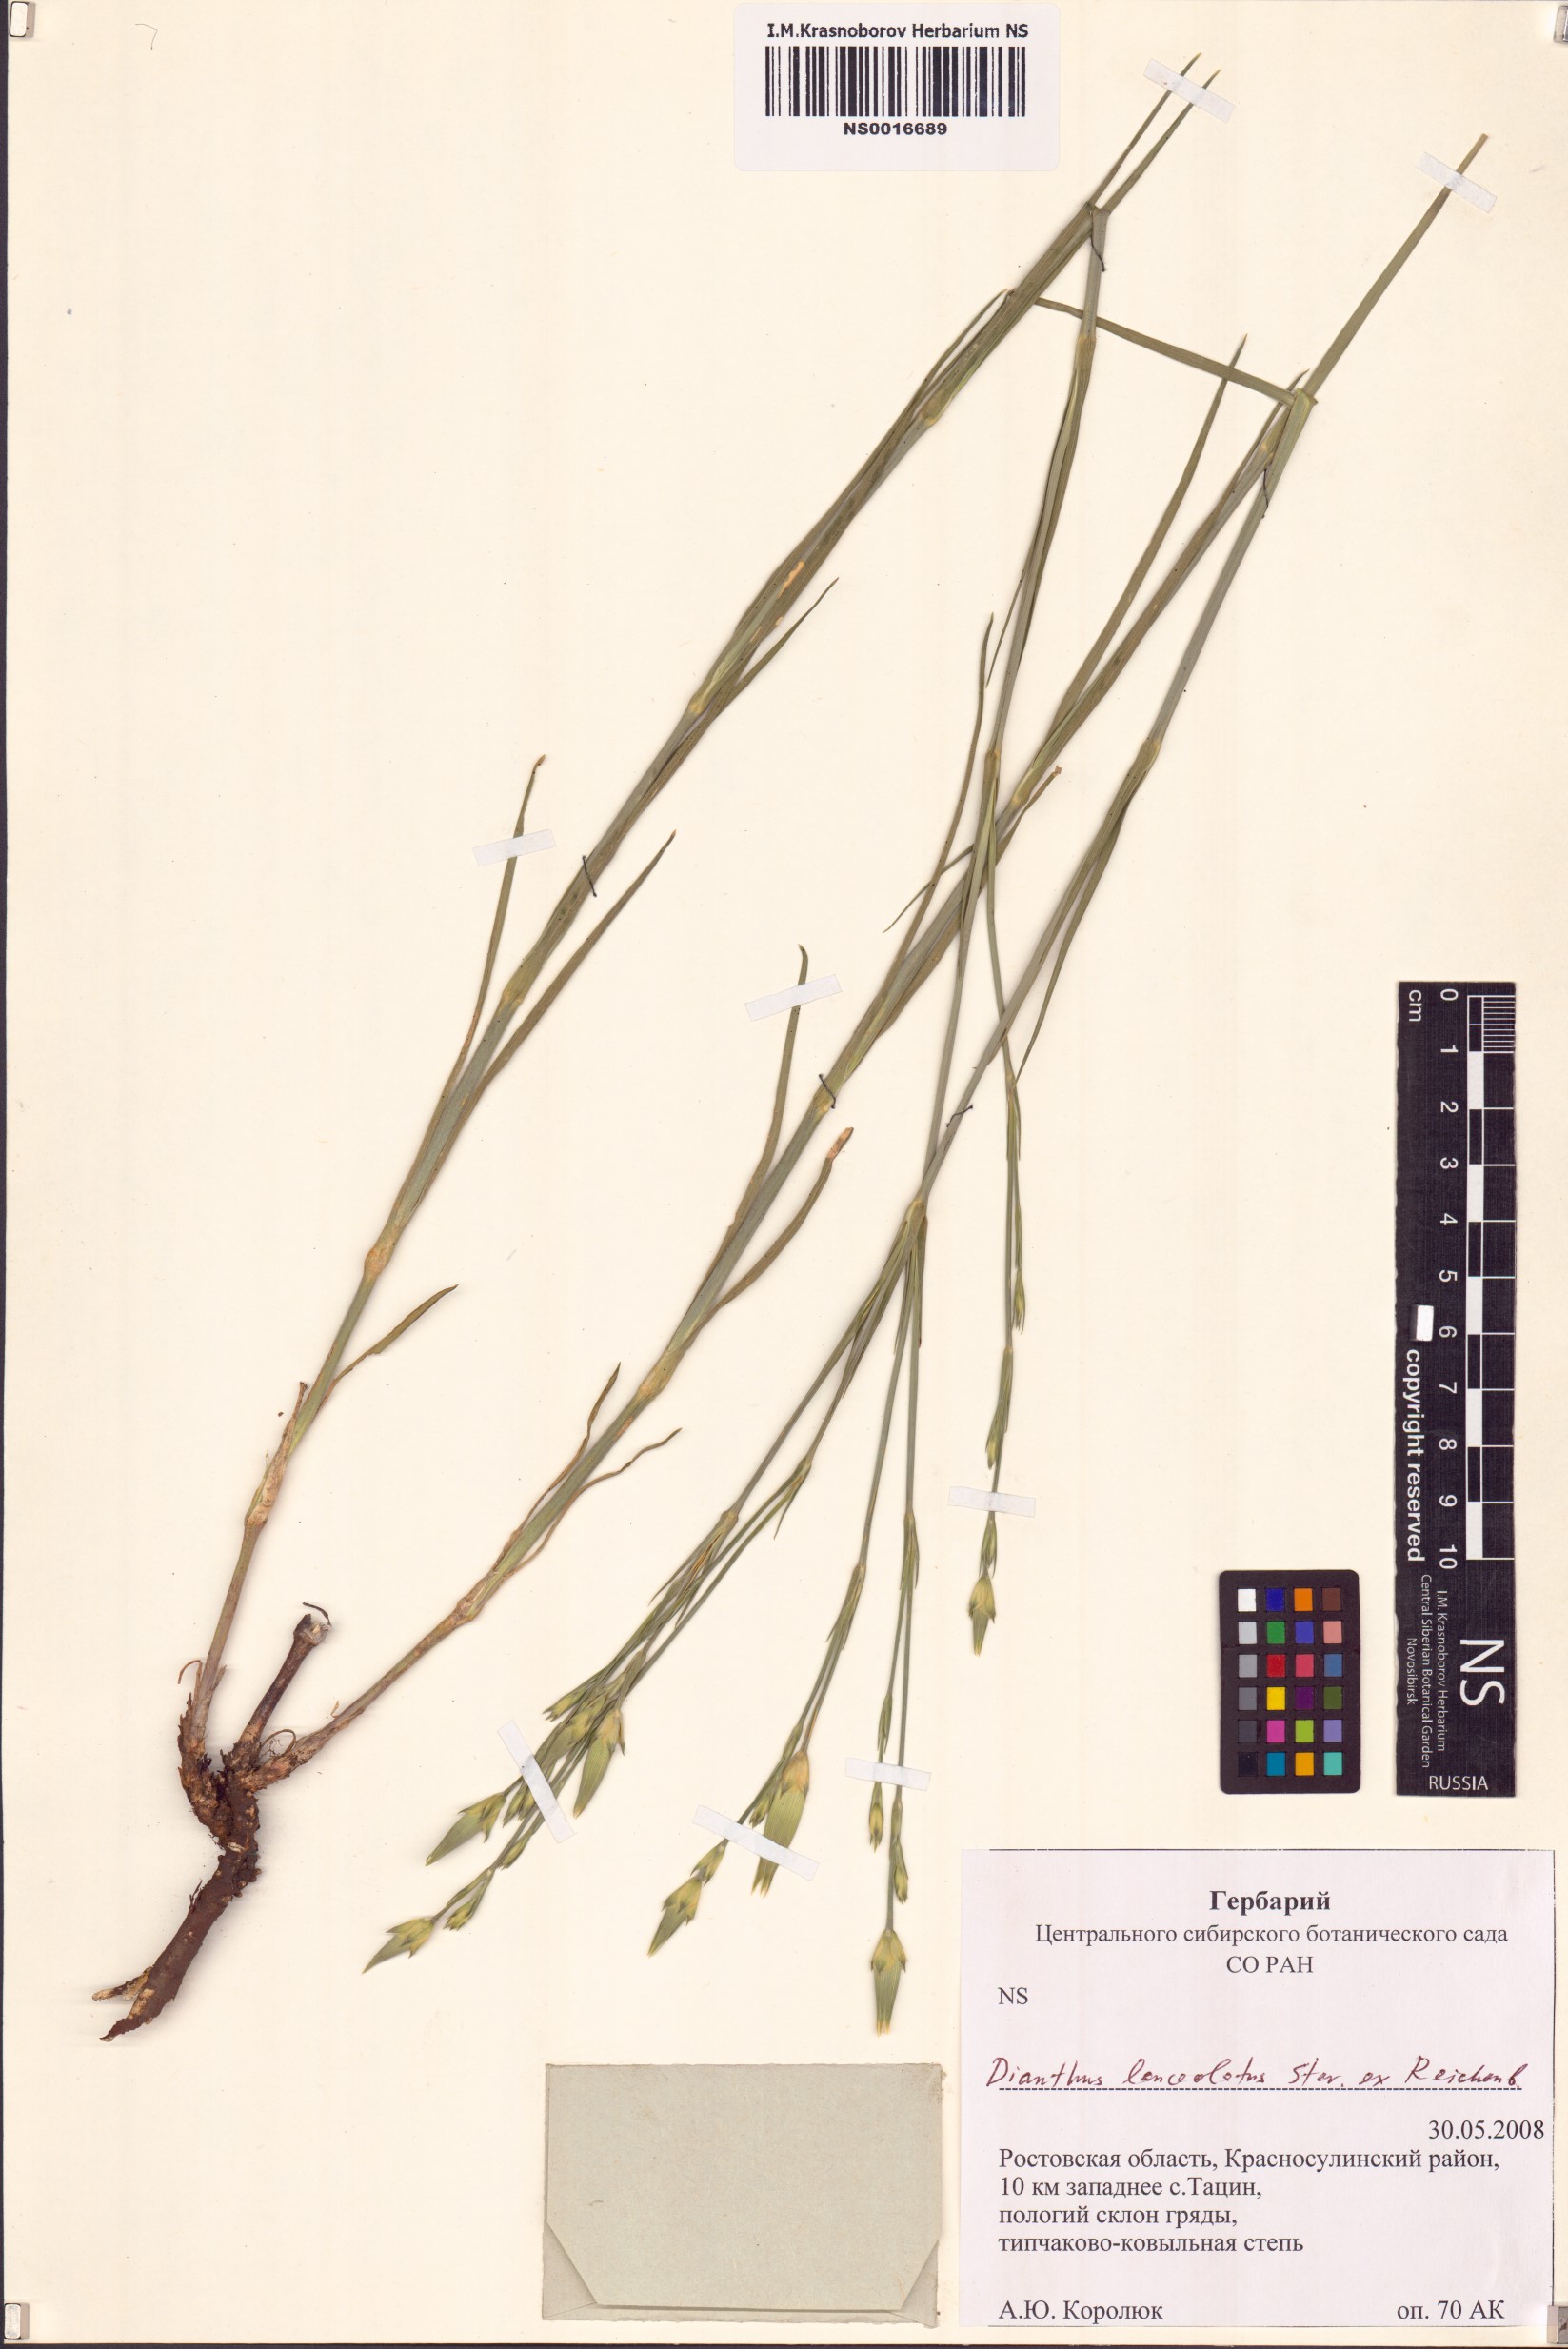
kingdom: Plantae
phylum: Tracheophyta
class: Magnoliopsida
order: Caryophyllales
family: Caryophyllaceae
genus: Dianthus
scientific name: Dianthus lanceolatus
